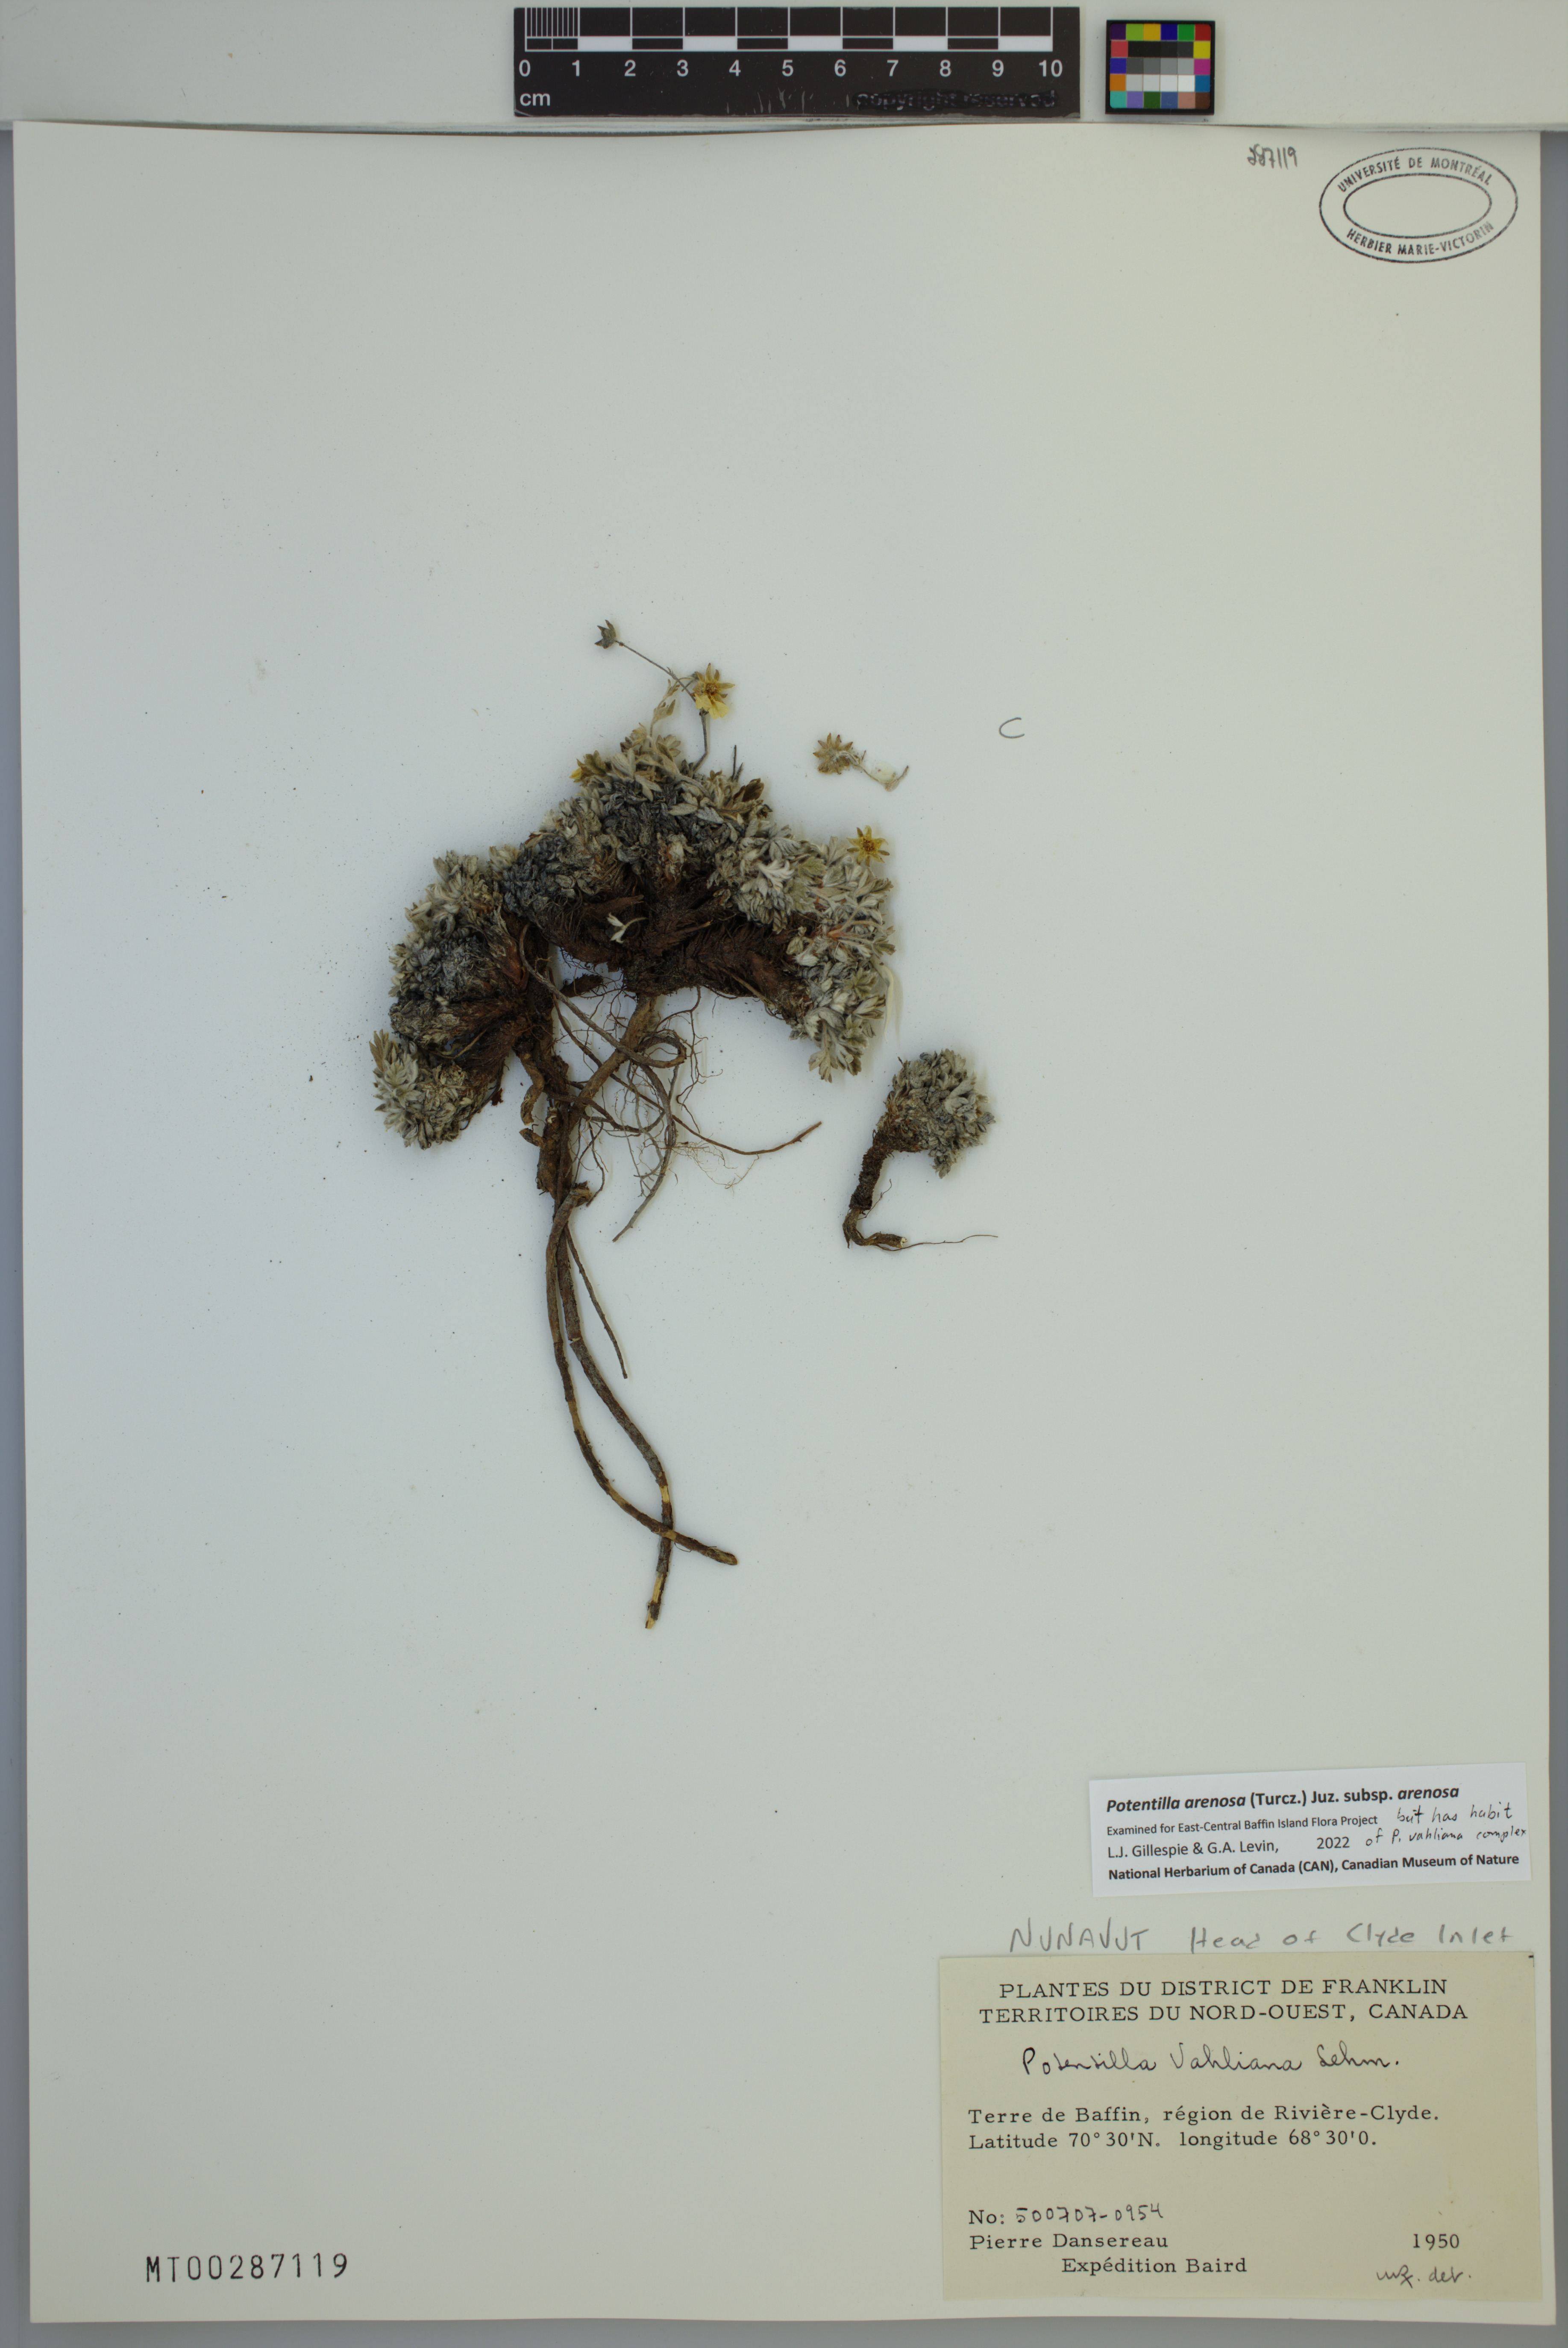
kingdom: Plantae
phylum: Tracheophyta
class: Magnoliopsida
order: Rosales
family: Rosaceae
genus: Potentilla
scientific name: Potentilla arenosa
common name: Bluff cinquefoil
